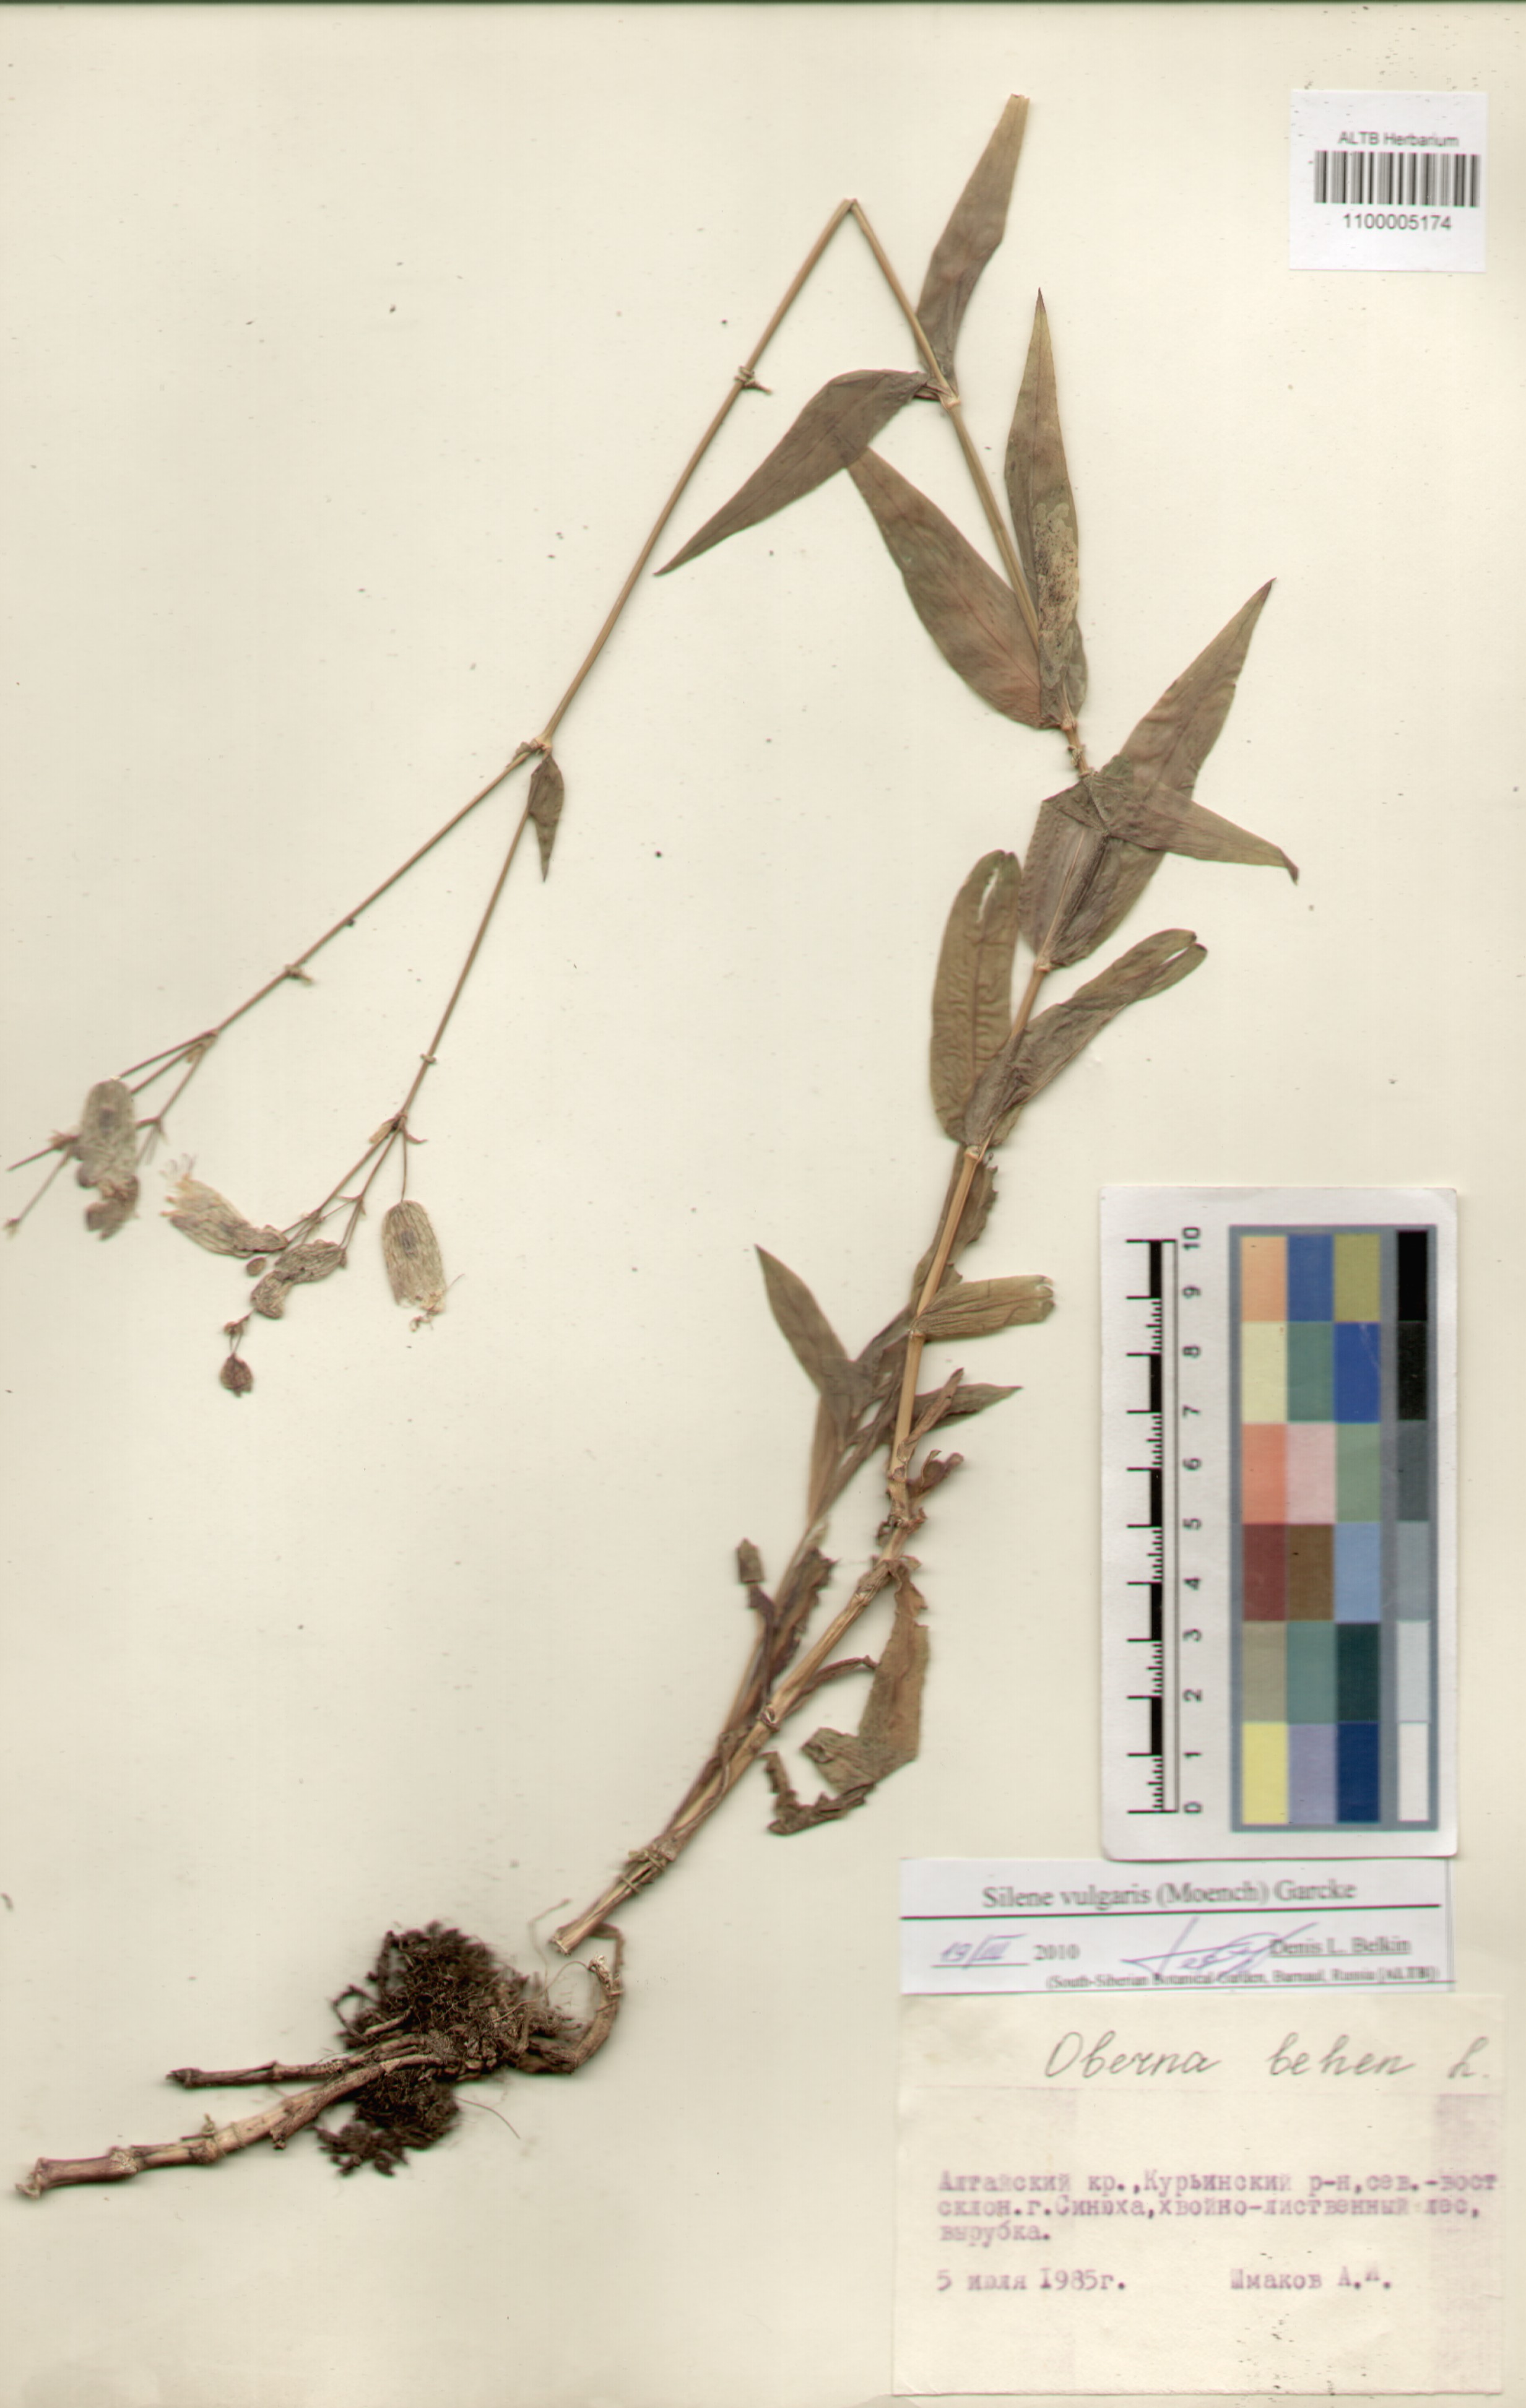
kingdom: Plantae
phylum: Tracheophyta
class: Magnoliopsida
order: Caryophyllales
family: Caryophyllaceae
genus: Silene
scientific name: Silene vulgaris
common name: Bladder campion
